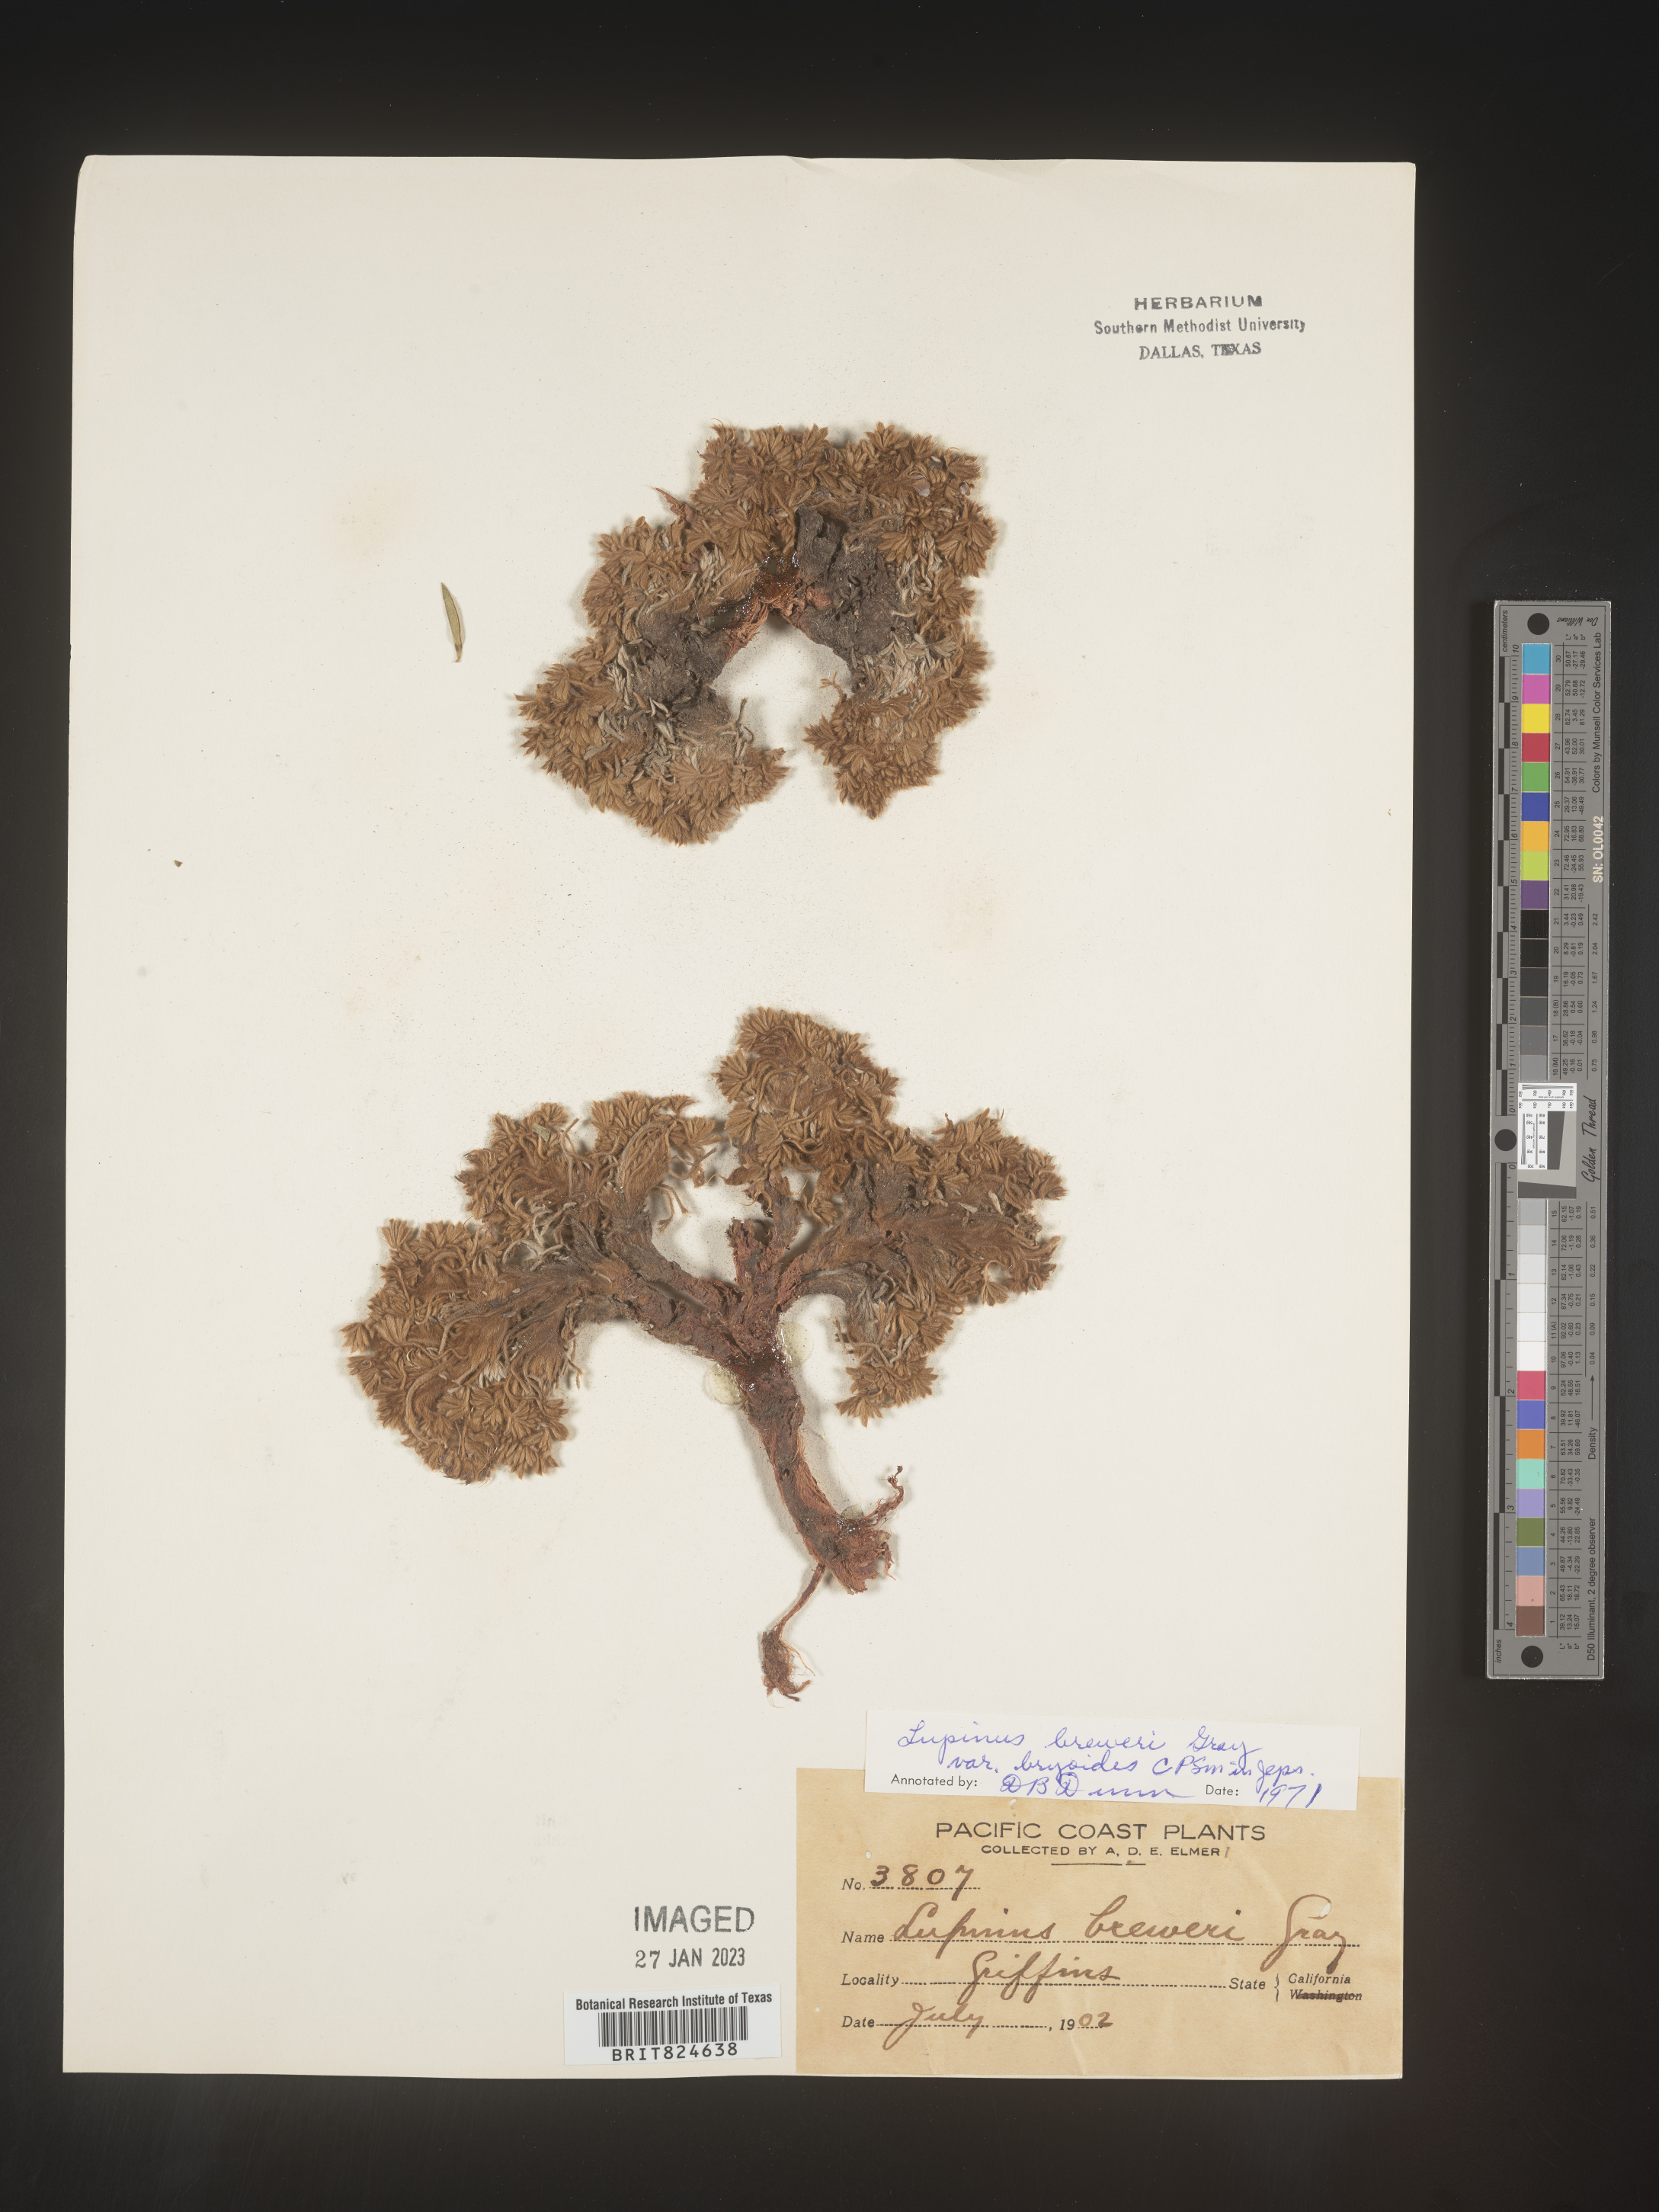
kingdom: Plantae
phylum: Tracheophyta
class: Magnoliopsida
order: Fabales
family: Fabaceae
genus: Lupinus
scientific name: Lupinus
